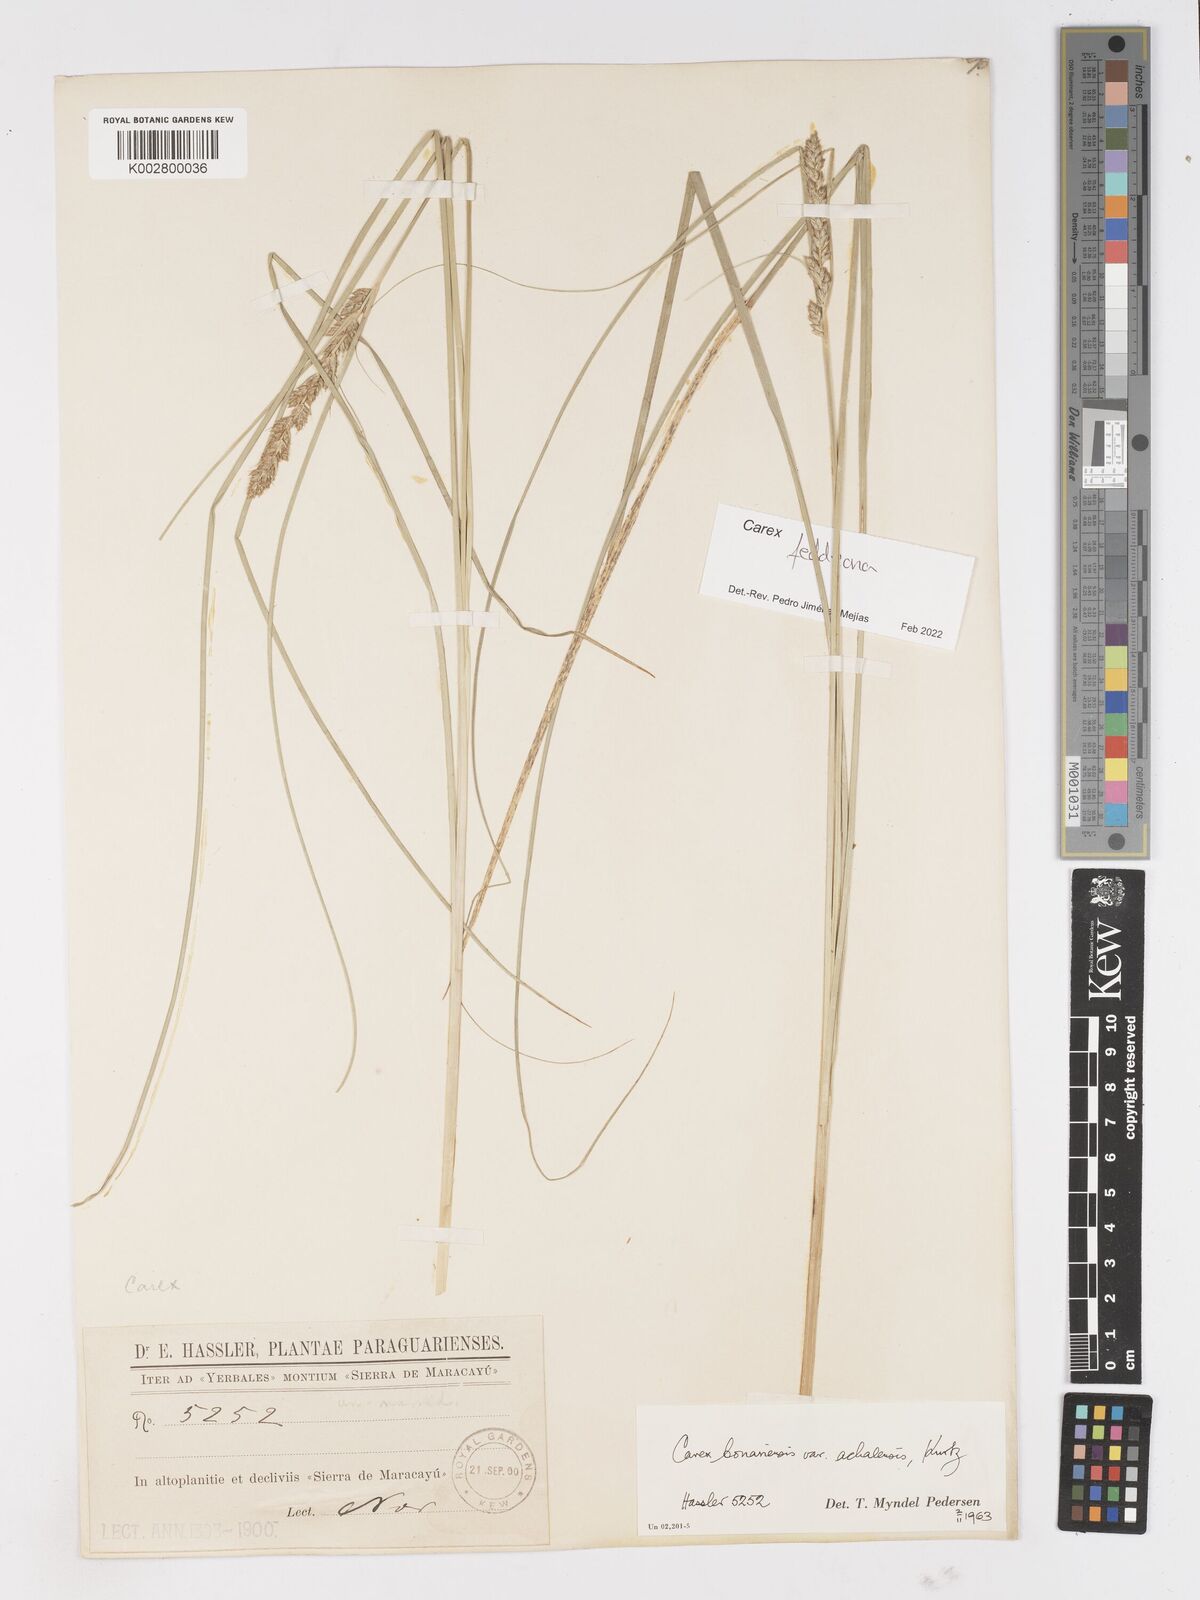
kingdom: Plantae
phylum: Tracheophyta
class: Liliopsida
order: Poales
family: Cyperaceae
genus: Carex
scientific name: Carex bonariensis
